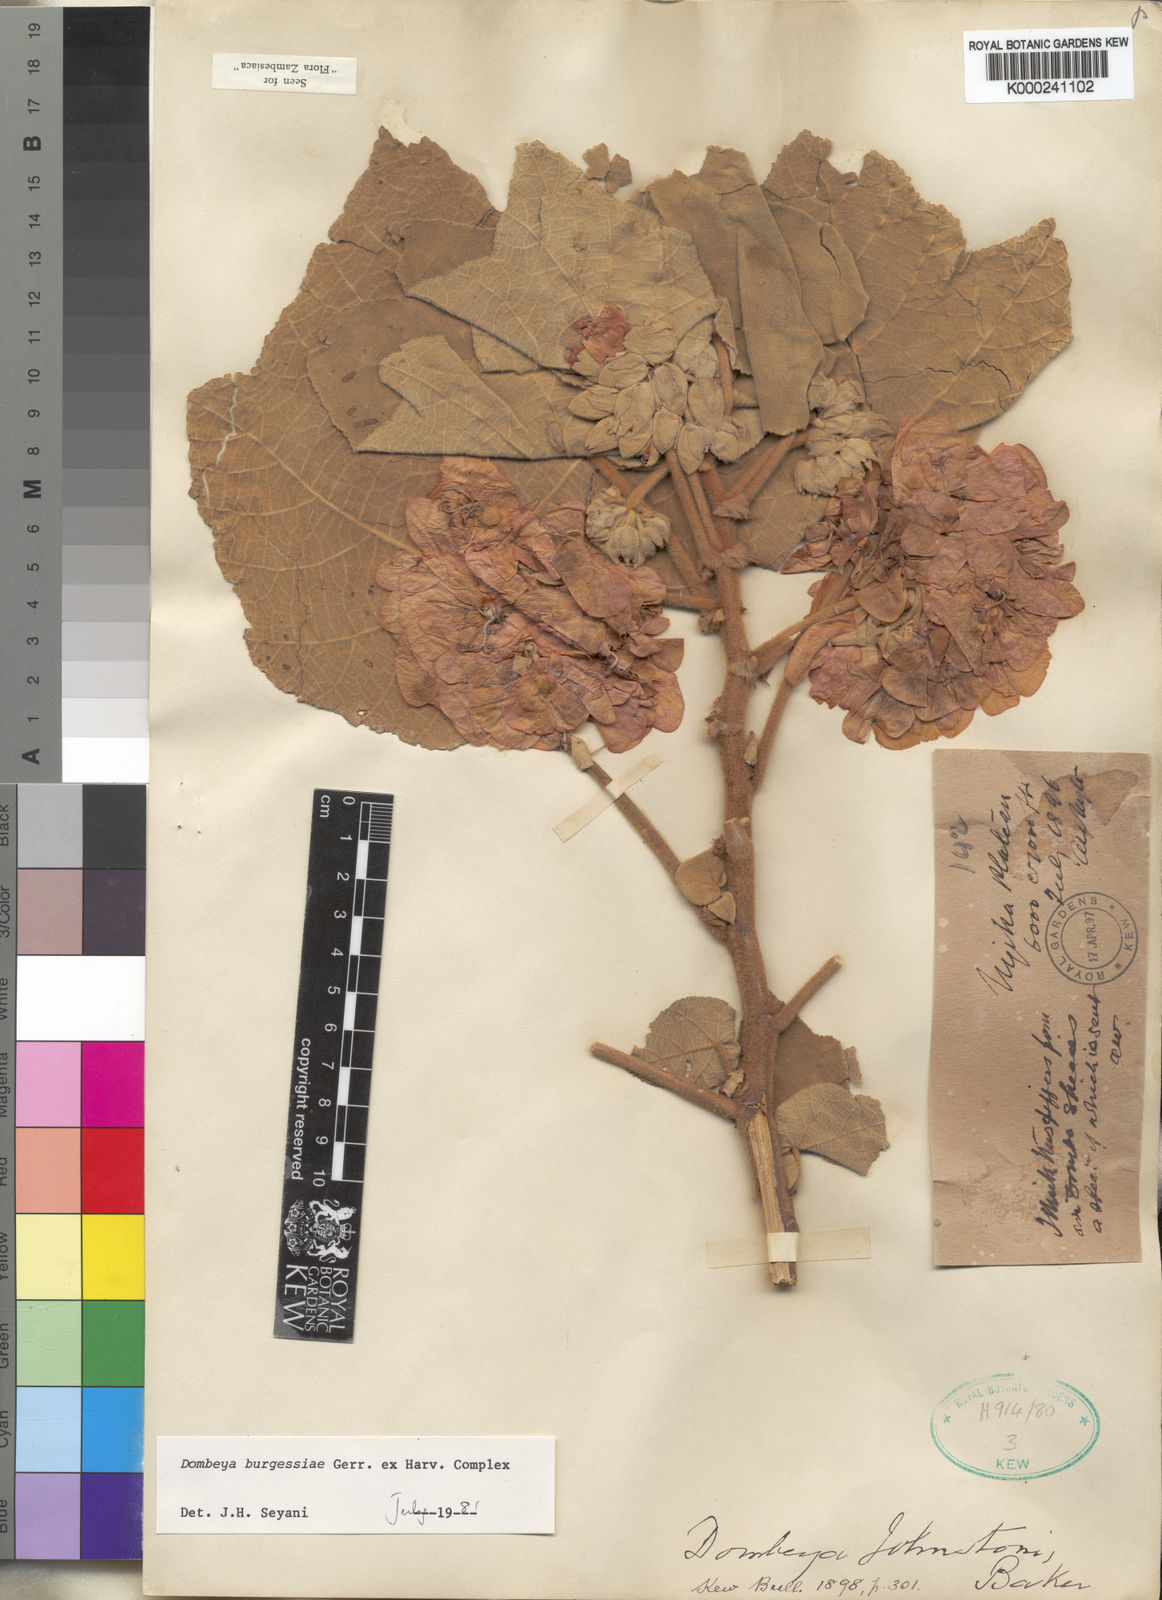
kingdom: Plantae
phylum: Tracheophyta
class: Magnoliopsida
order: Malvales
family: Malvaceae
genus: Dombeya
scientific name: Dombeya burgessiae
